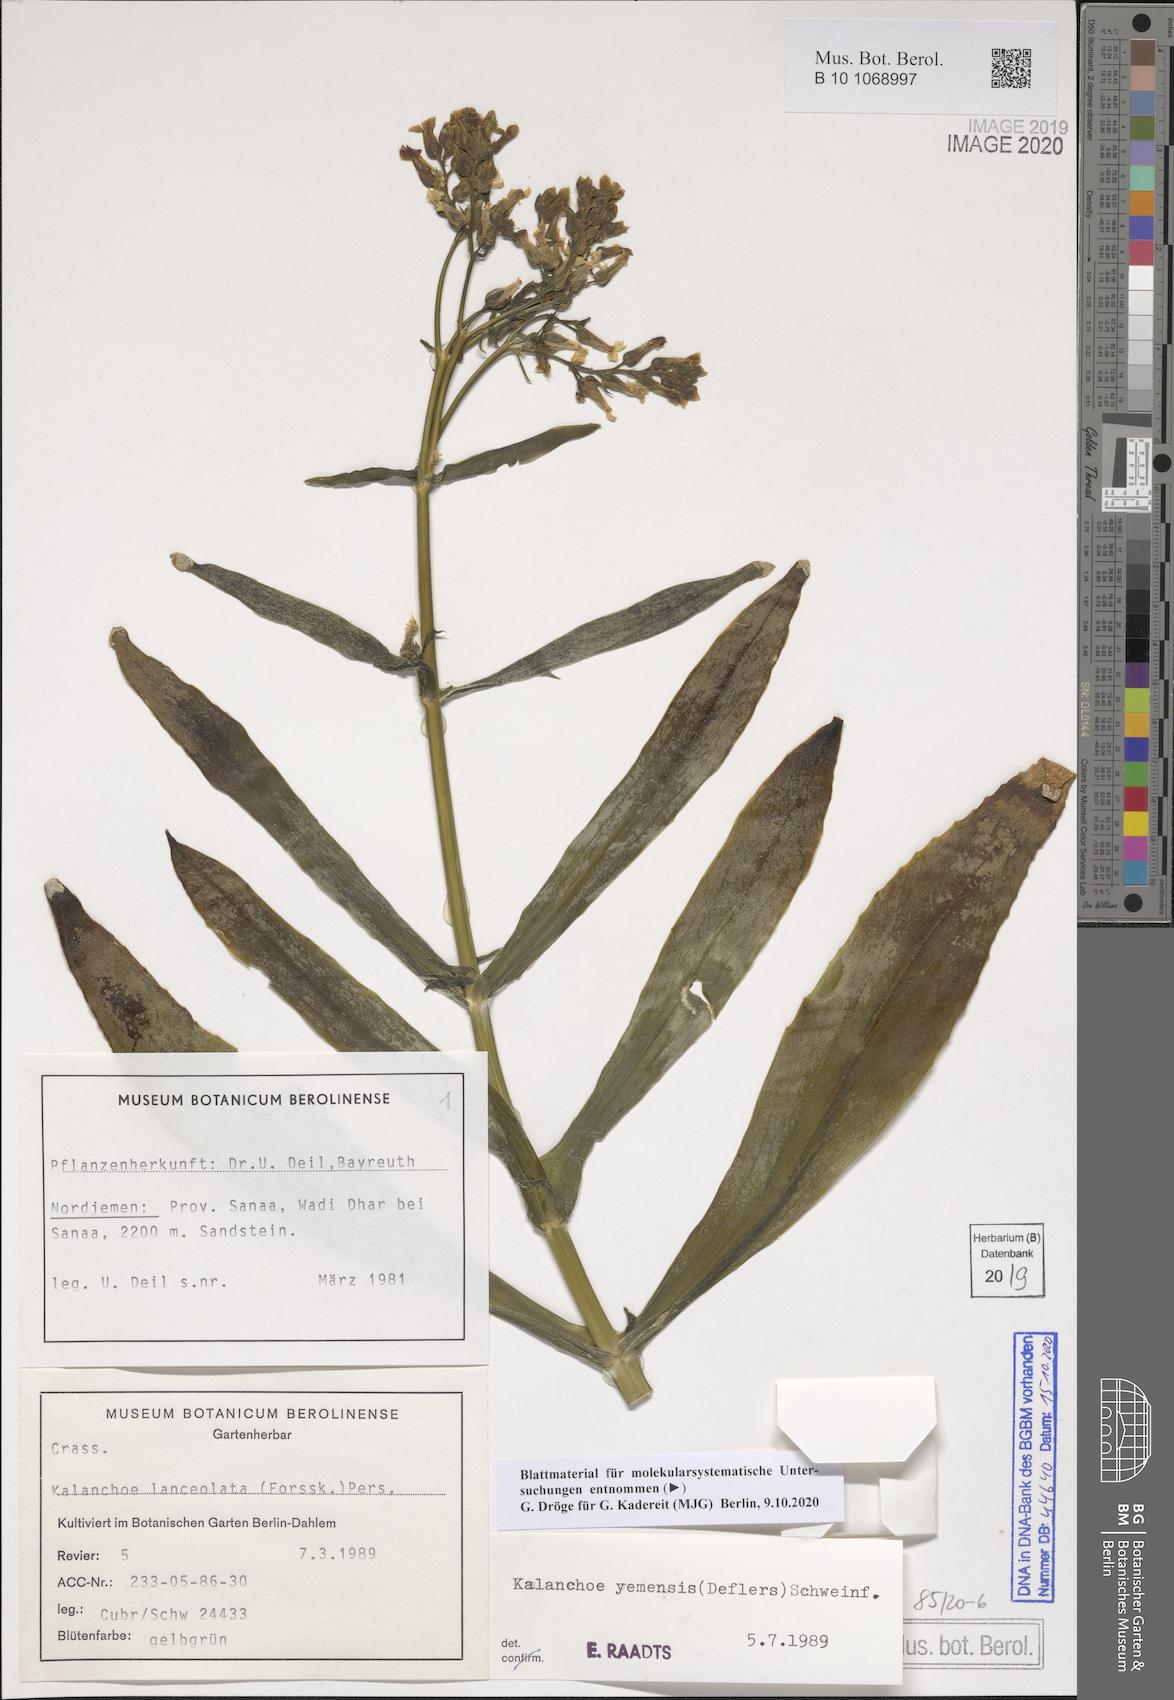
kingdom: Plantae
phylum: Tracheophyta
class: Magnoliopsida
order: Saxifragales
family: Crassulaceae
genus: Kalanchoe
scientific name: Kalanchoe yemensis
